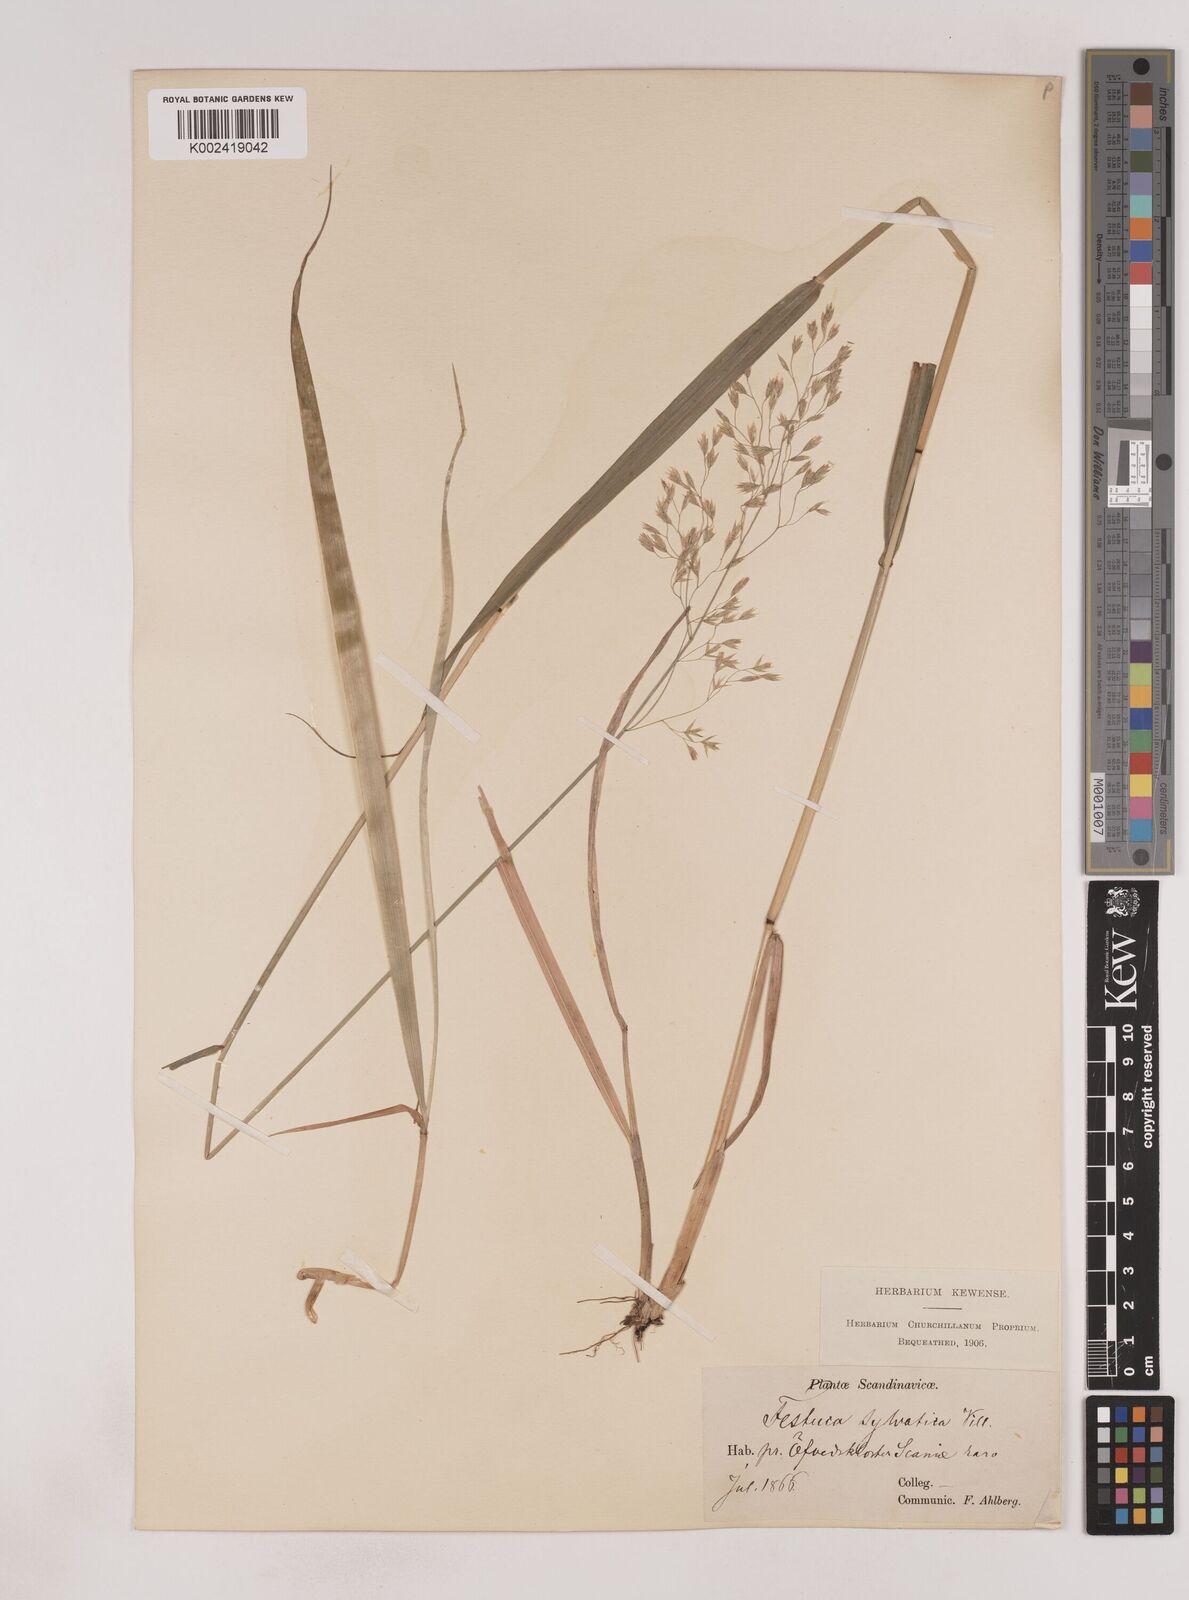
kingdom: Plantae
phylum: Tracheophyta
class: Liliopsida
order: Poales
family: Poaceae
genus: Festuca
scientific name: Festuca drymeja
